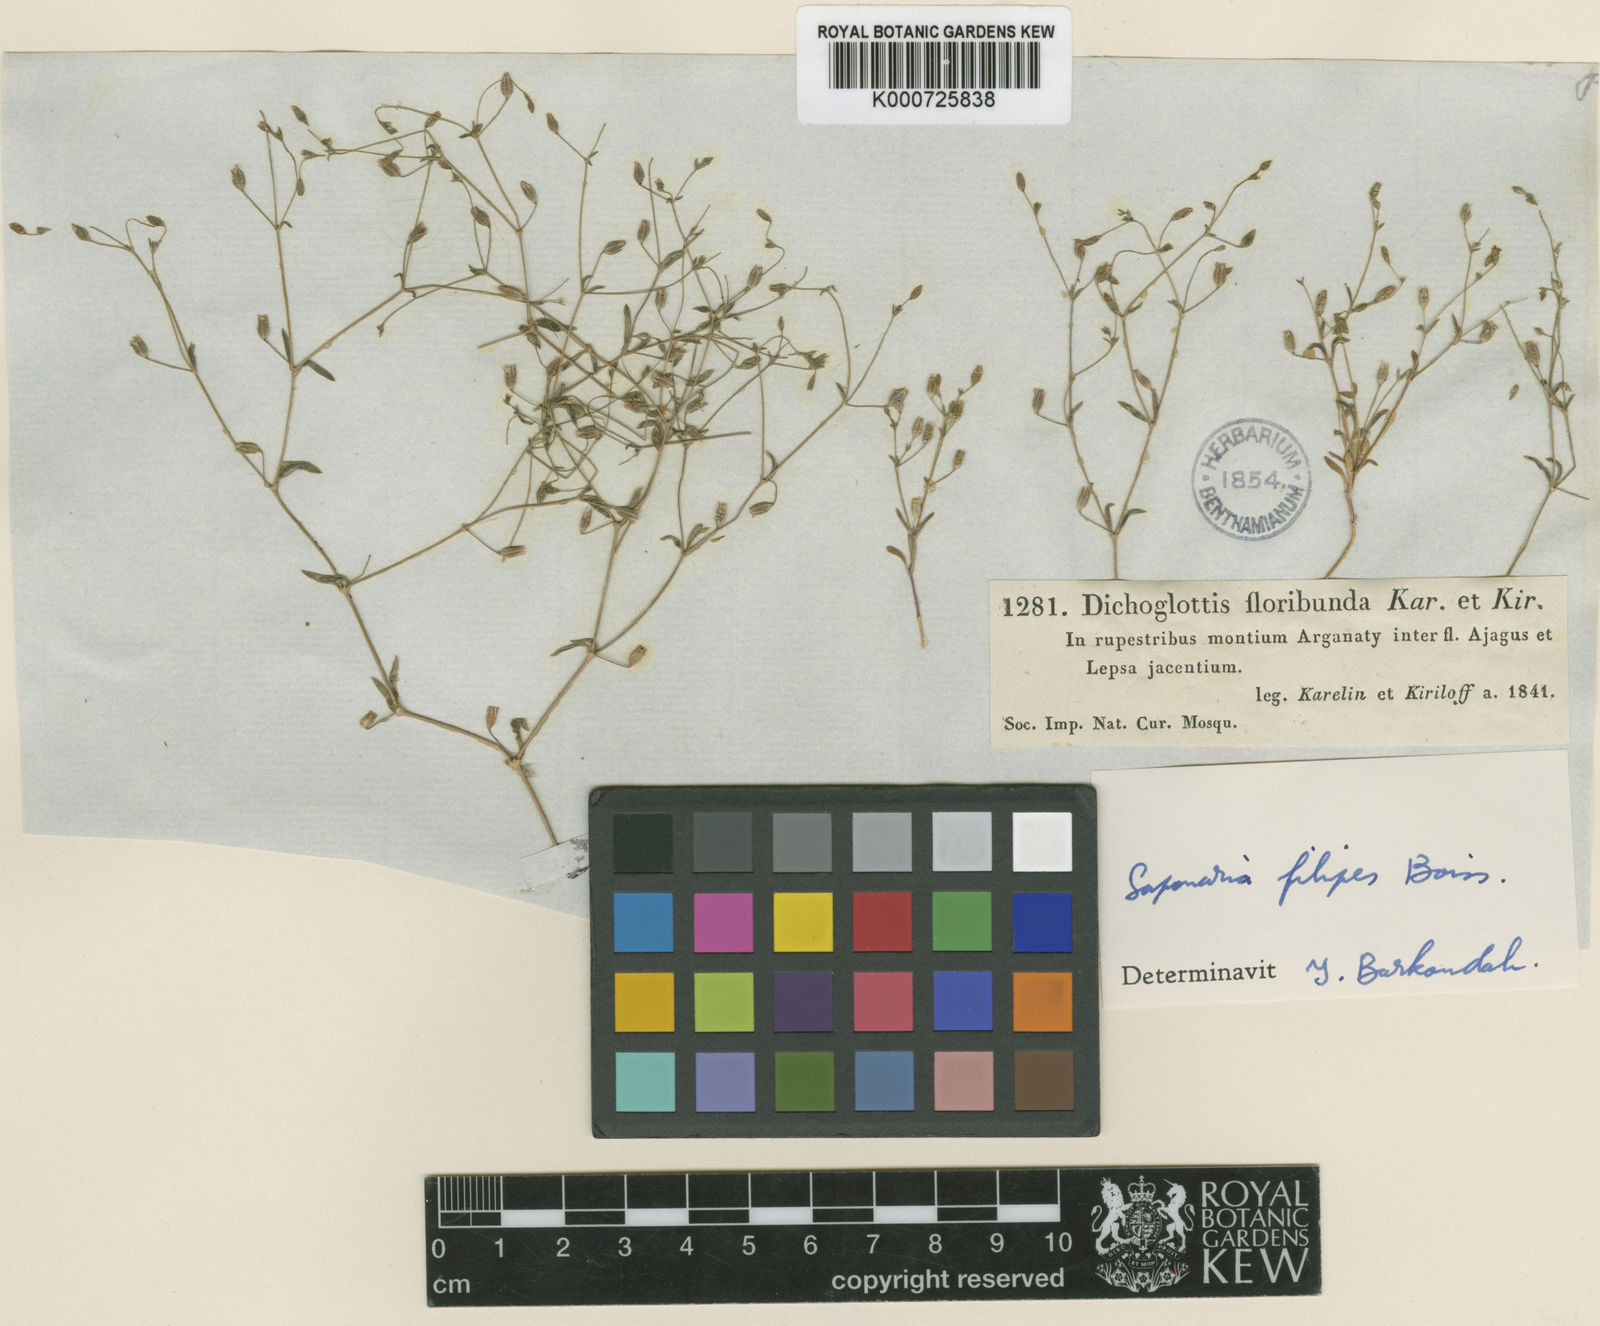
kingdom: Plantae
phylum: Tracheophyta
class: Magnoliopsida
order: Caryophyllales
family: Caryophyllaceae
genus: Psammophiliella
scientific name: Psammophiliella filipes
